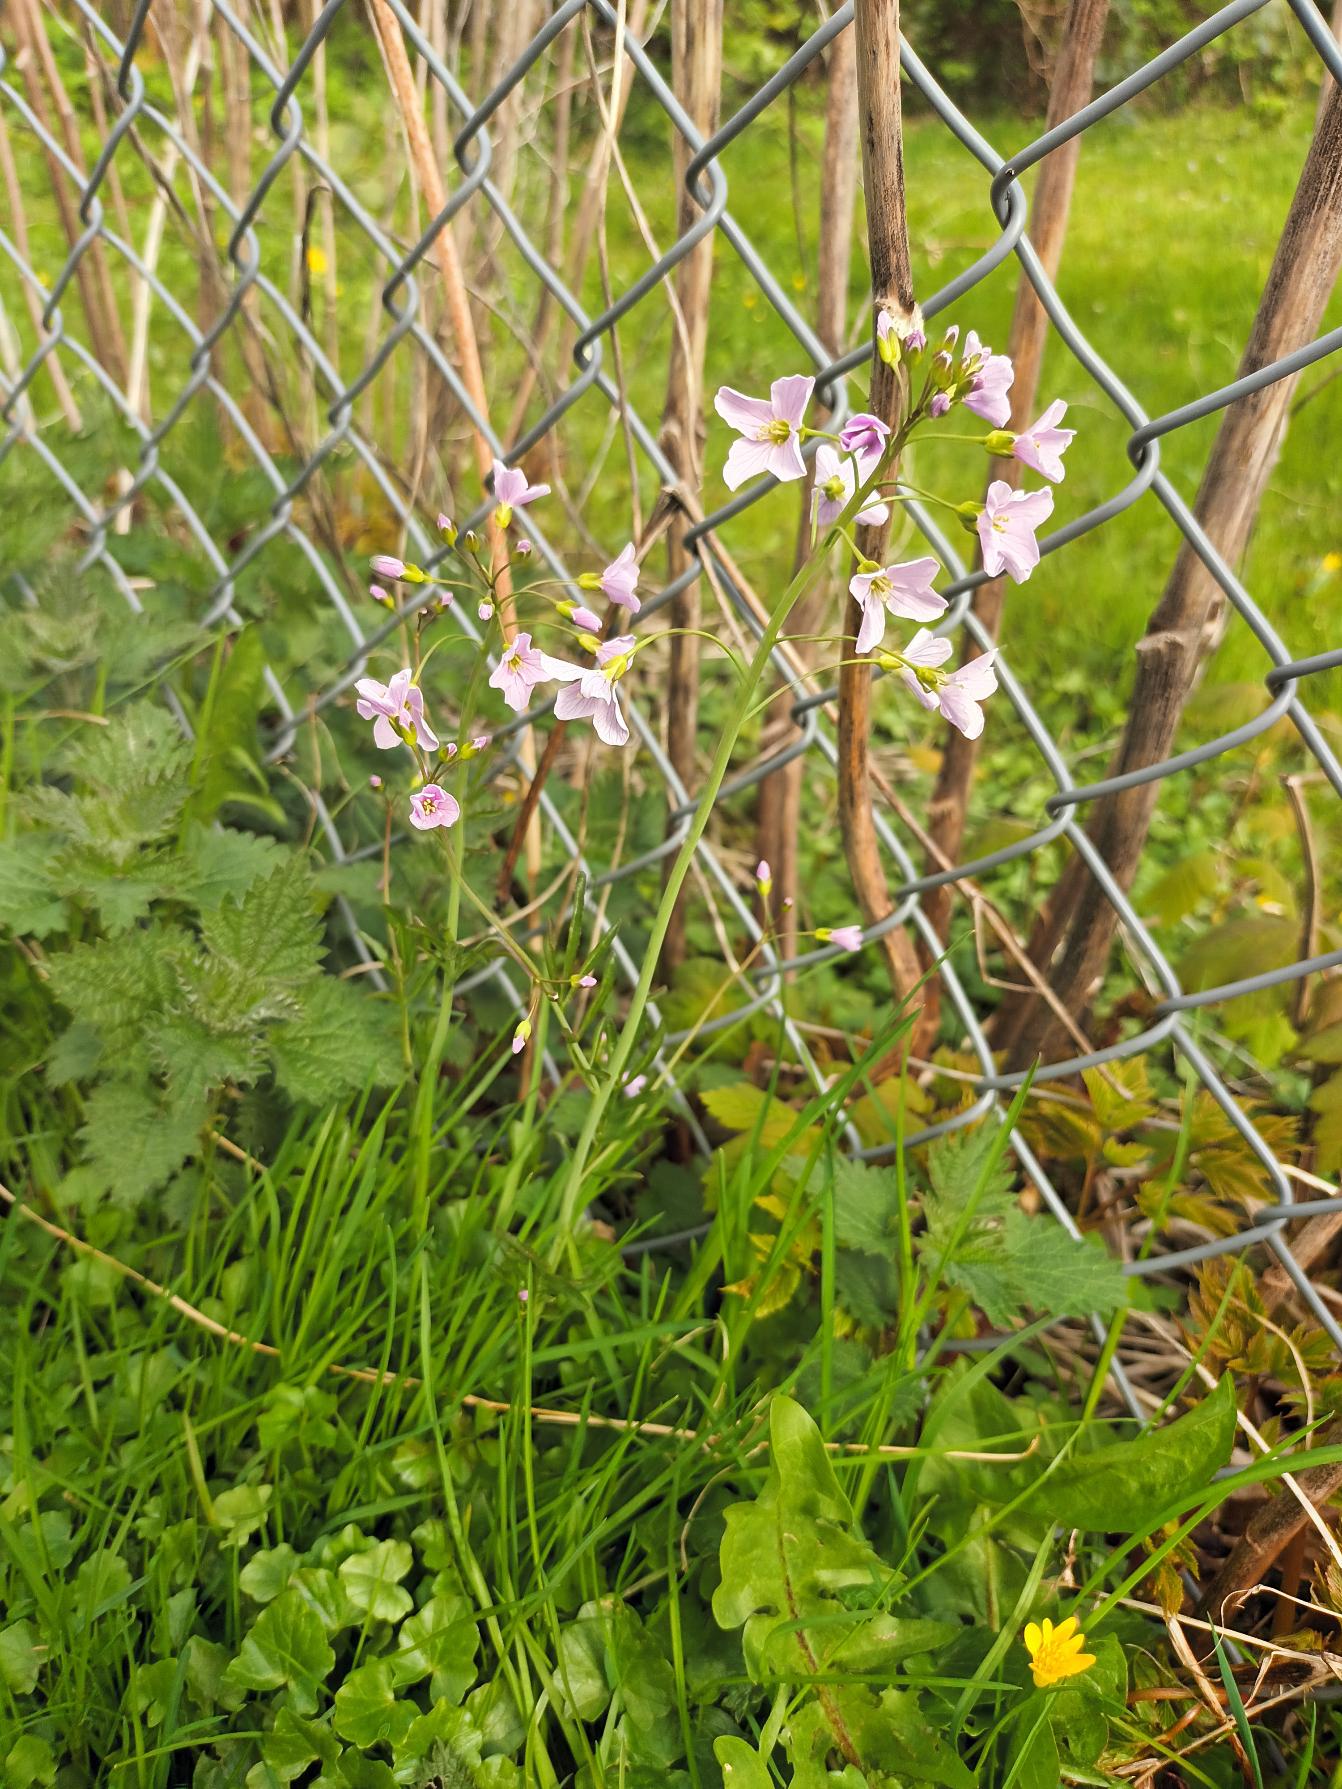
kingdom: Plantae
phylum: Tracheophyta
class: Magnoliopsida
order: Brassicales
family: Brassicaceae
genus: Cardamine
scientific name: Cardamine pratensis
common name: Engkarse
